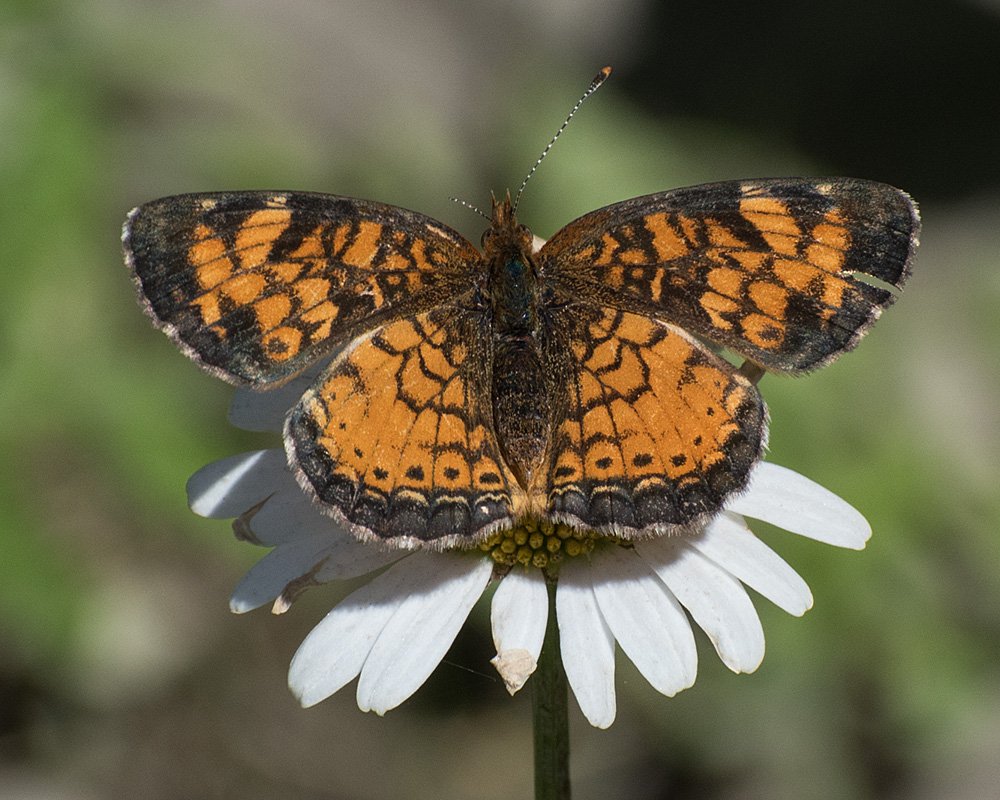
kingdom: Animalia
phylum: Arthropoda
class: Insecta
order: Lepidoptera
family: Nymphalidae
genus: Phyciodes
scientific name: Phyciodes tharos
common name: Northern Crescent
